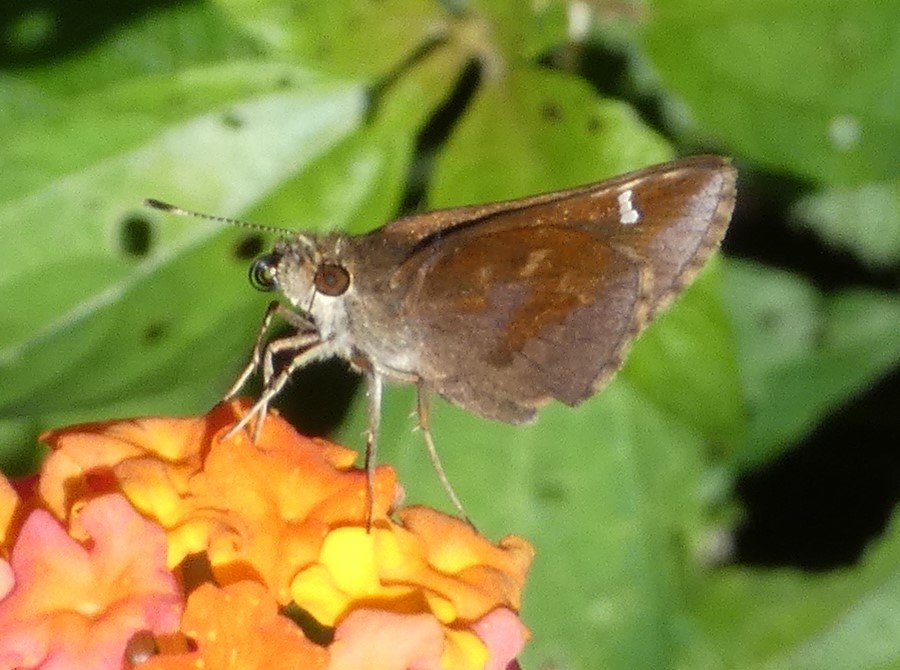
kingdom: Animalia
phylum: Arthropoda
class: Insecta
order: Lepidoptera
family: Hesperiidae
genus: Lerema
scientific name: Lerema accius
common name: Clouded Skipper
